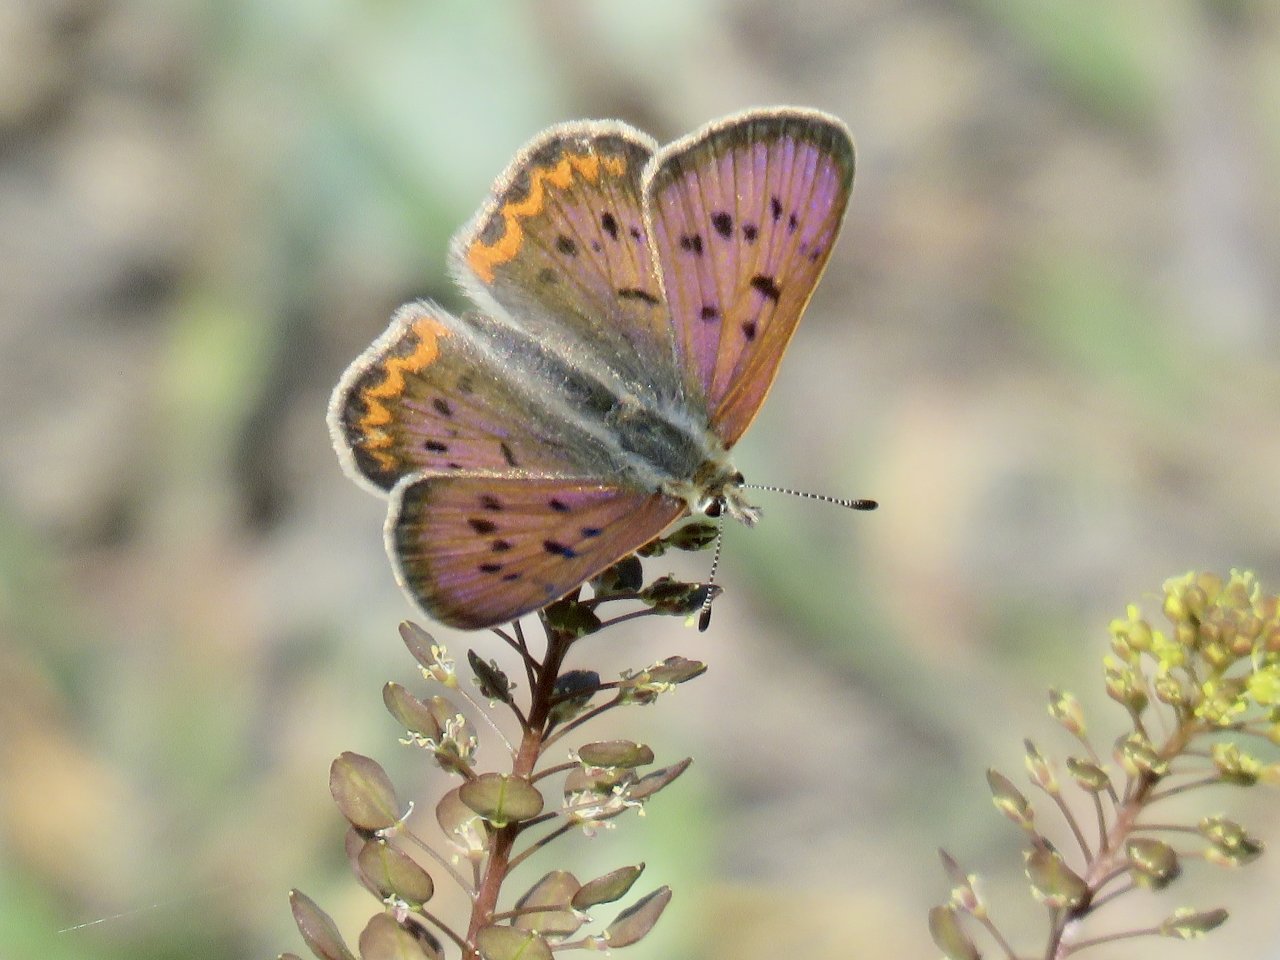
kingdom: Animalia
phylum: Arthropoda
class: Insecta
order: Lepidoptera
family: Sesiidae
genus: Sesia
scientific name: Sesia Lycaena helloides
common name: Purplish Copper
